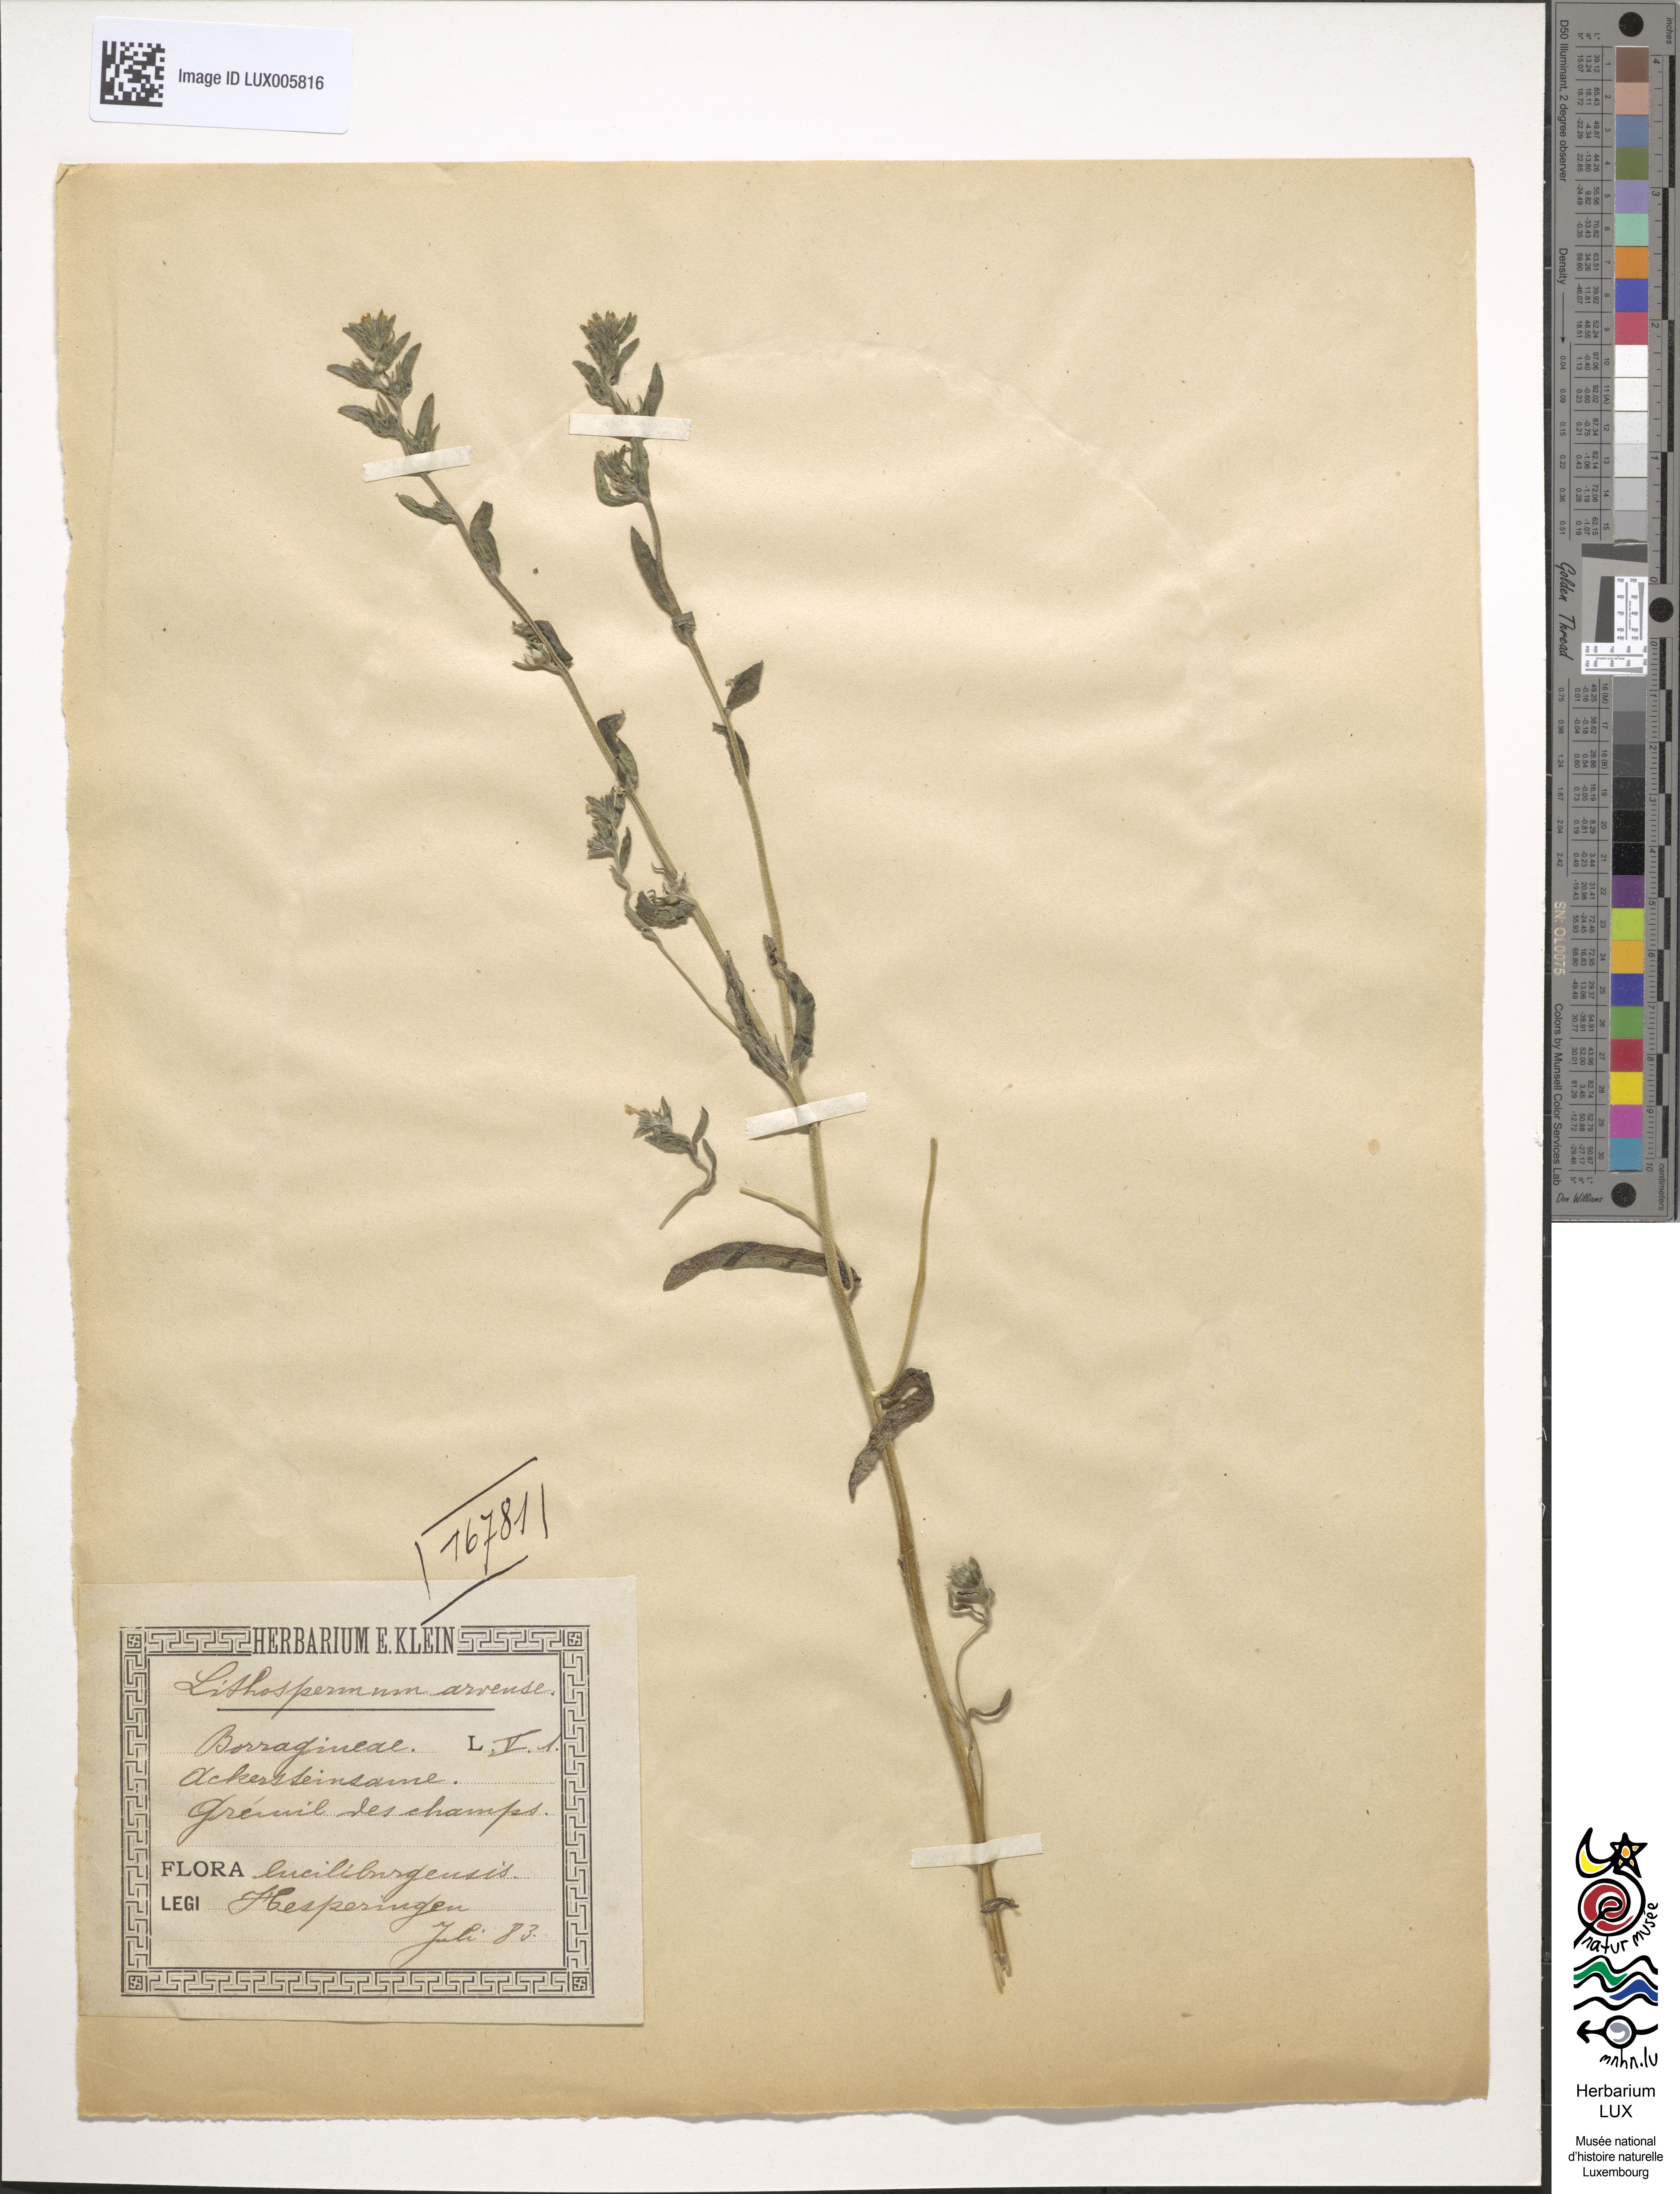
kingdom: Plantae
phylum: Tracheophyta
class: Magnoliopsida
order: Boraginales
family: Boraginaceae
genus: Buglossoides
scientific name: Buglossoides arvensis
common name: Corn gromwell
